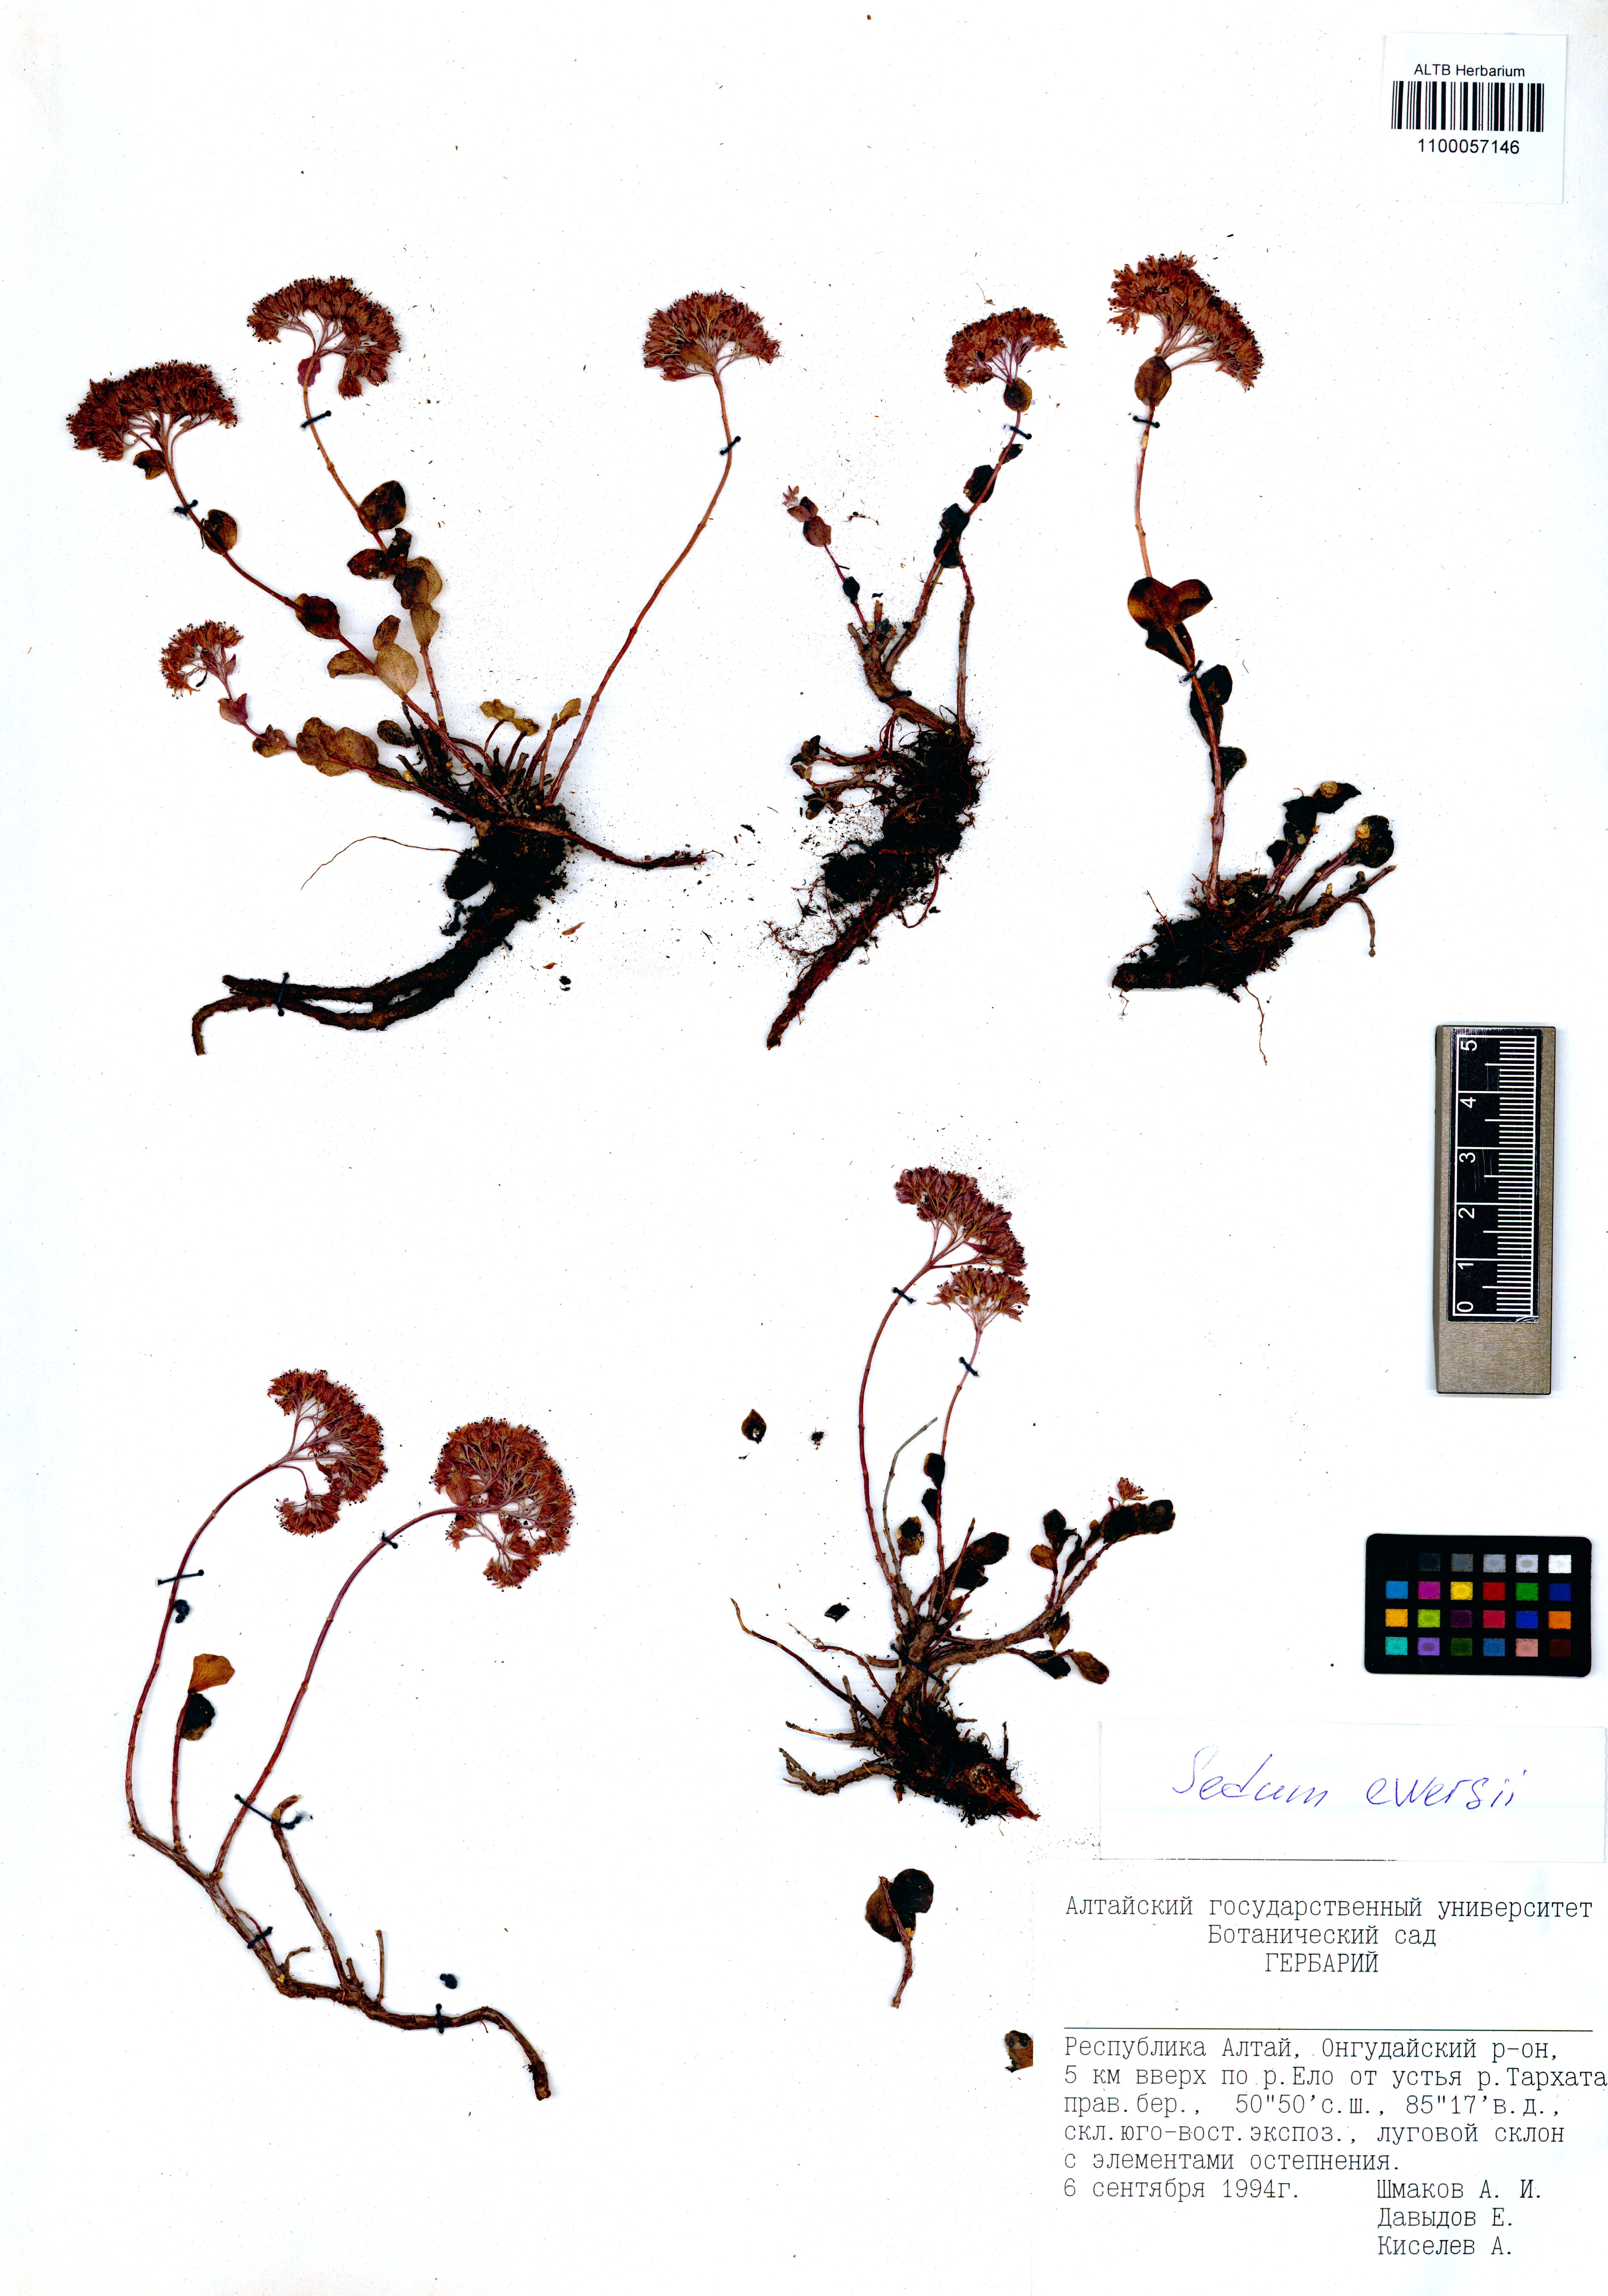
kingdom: Plantae
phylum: Tracheophyta
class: Magnoliopsida
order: Saxifragales
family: Crassulaceae
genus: Hylotelephium
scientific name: Hylotelephium ewersii
